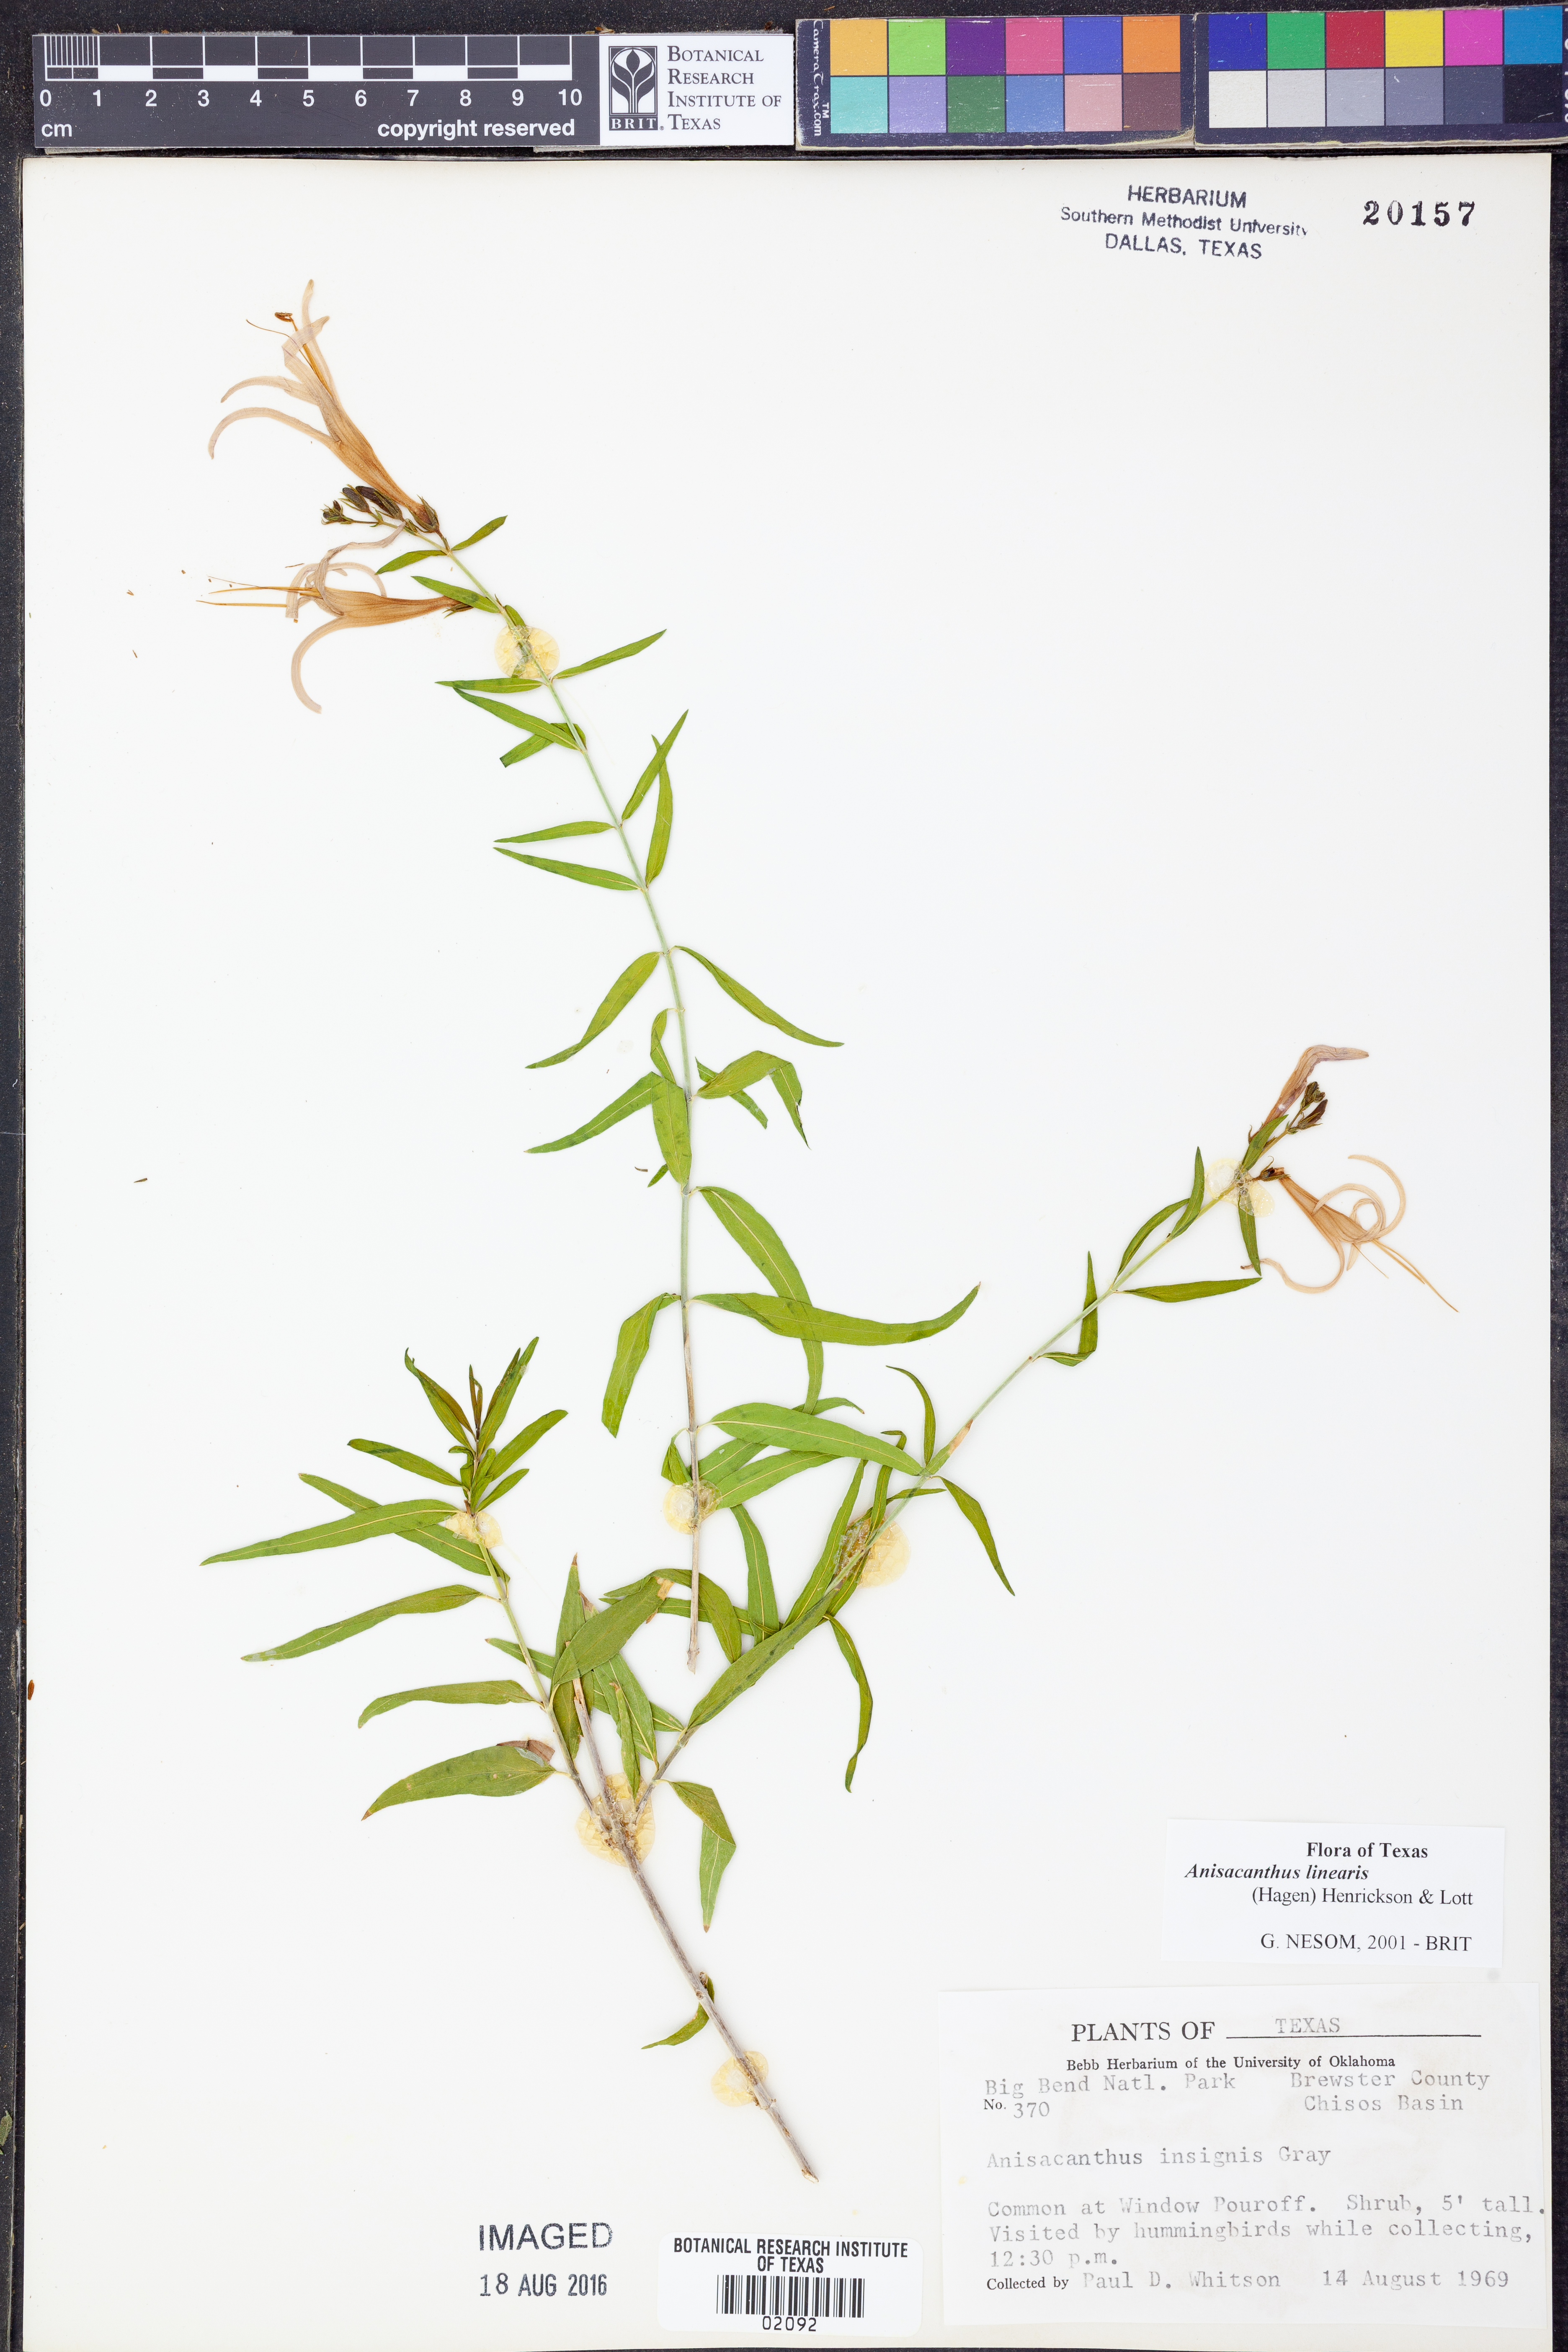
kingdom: Plantae
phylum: Tracheophyta
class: Magnoliopsida
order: Lamiales
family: Acanthaceae
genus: Anisacanthus
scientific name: Anisacanthus linearis
